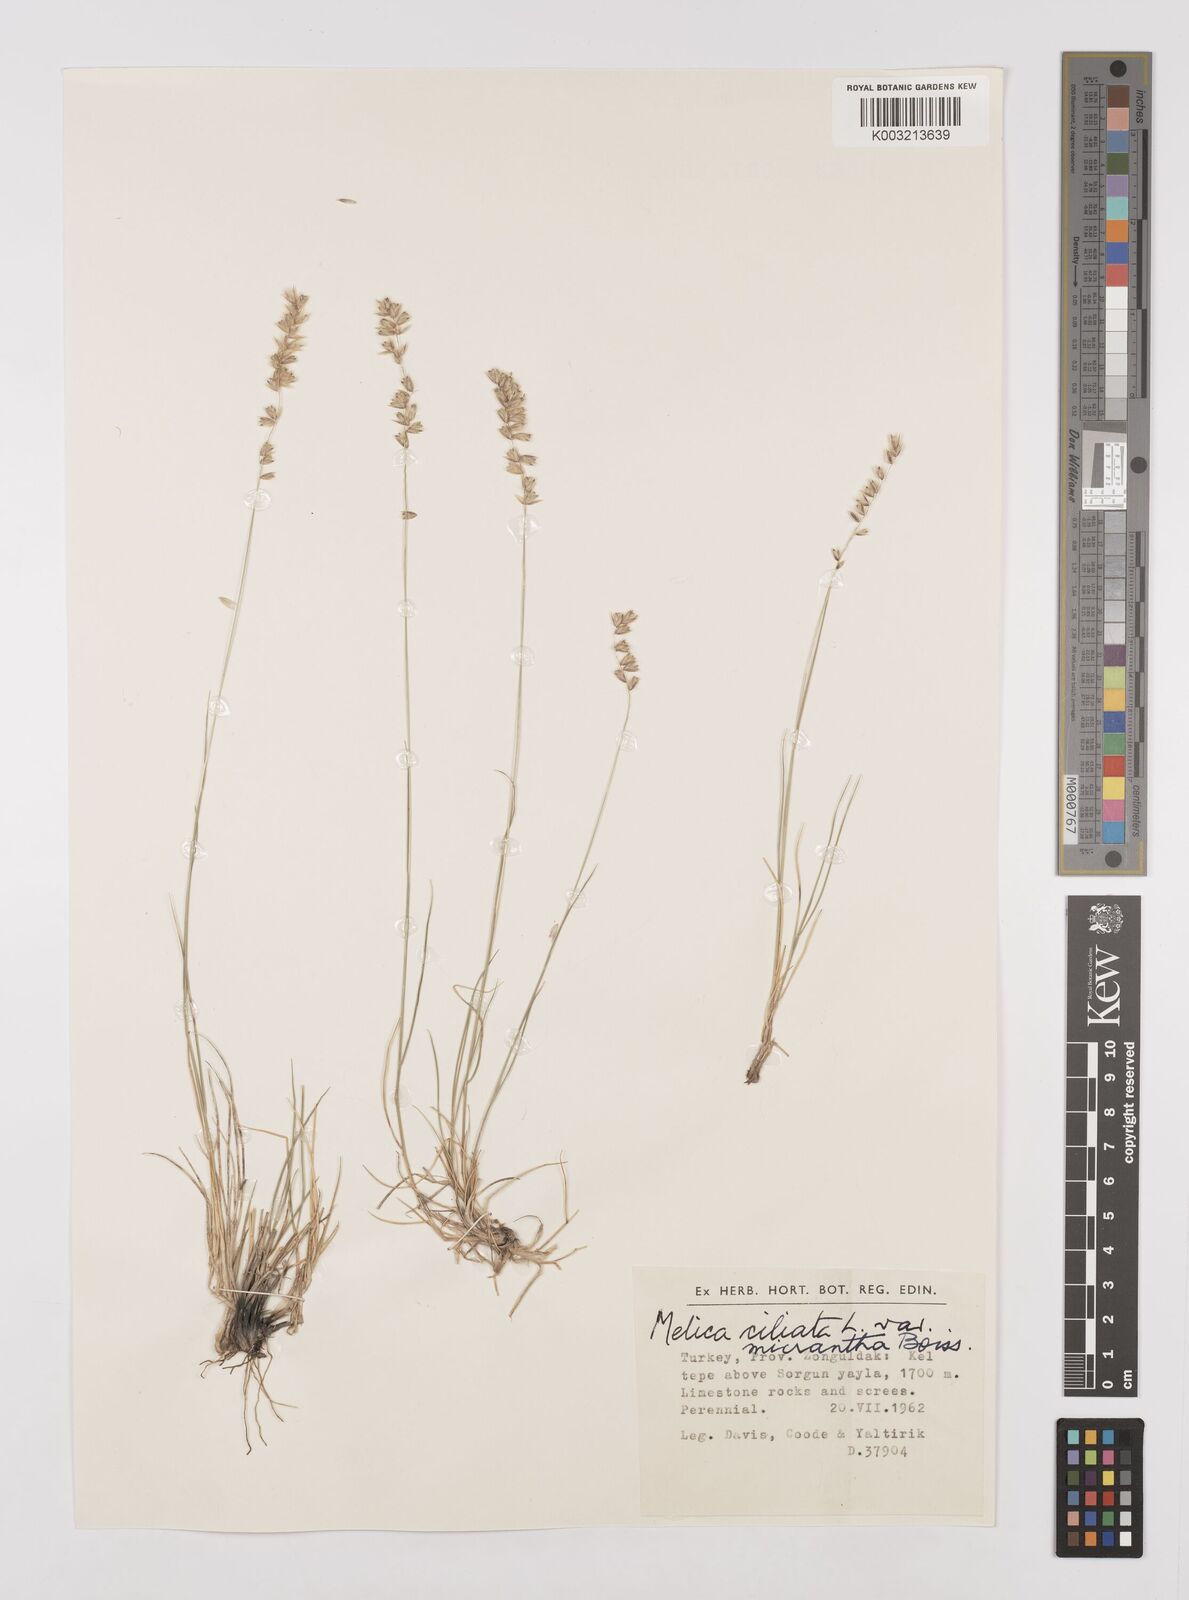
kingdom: Plantae
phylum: Tracheophyta
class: Liliopsida
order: Poales
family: Poaceae
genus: Melica
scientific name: Melica ciliata
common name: Hairy melicgrass
